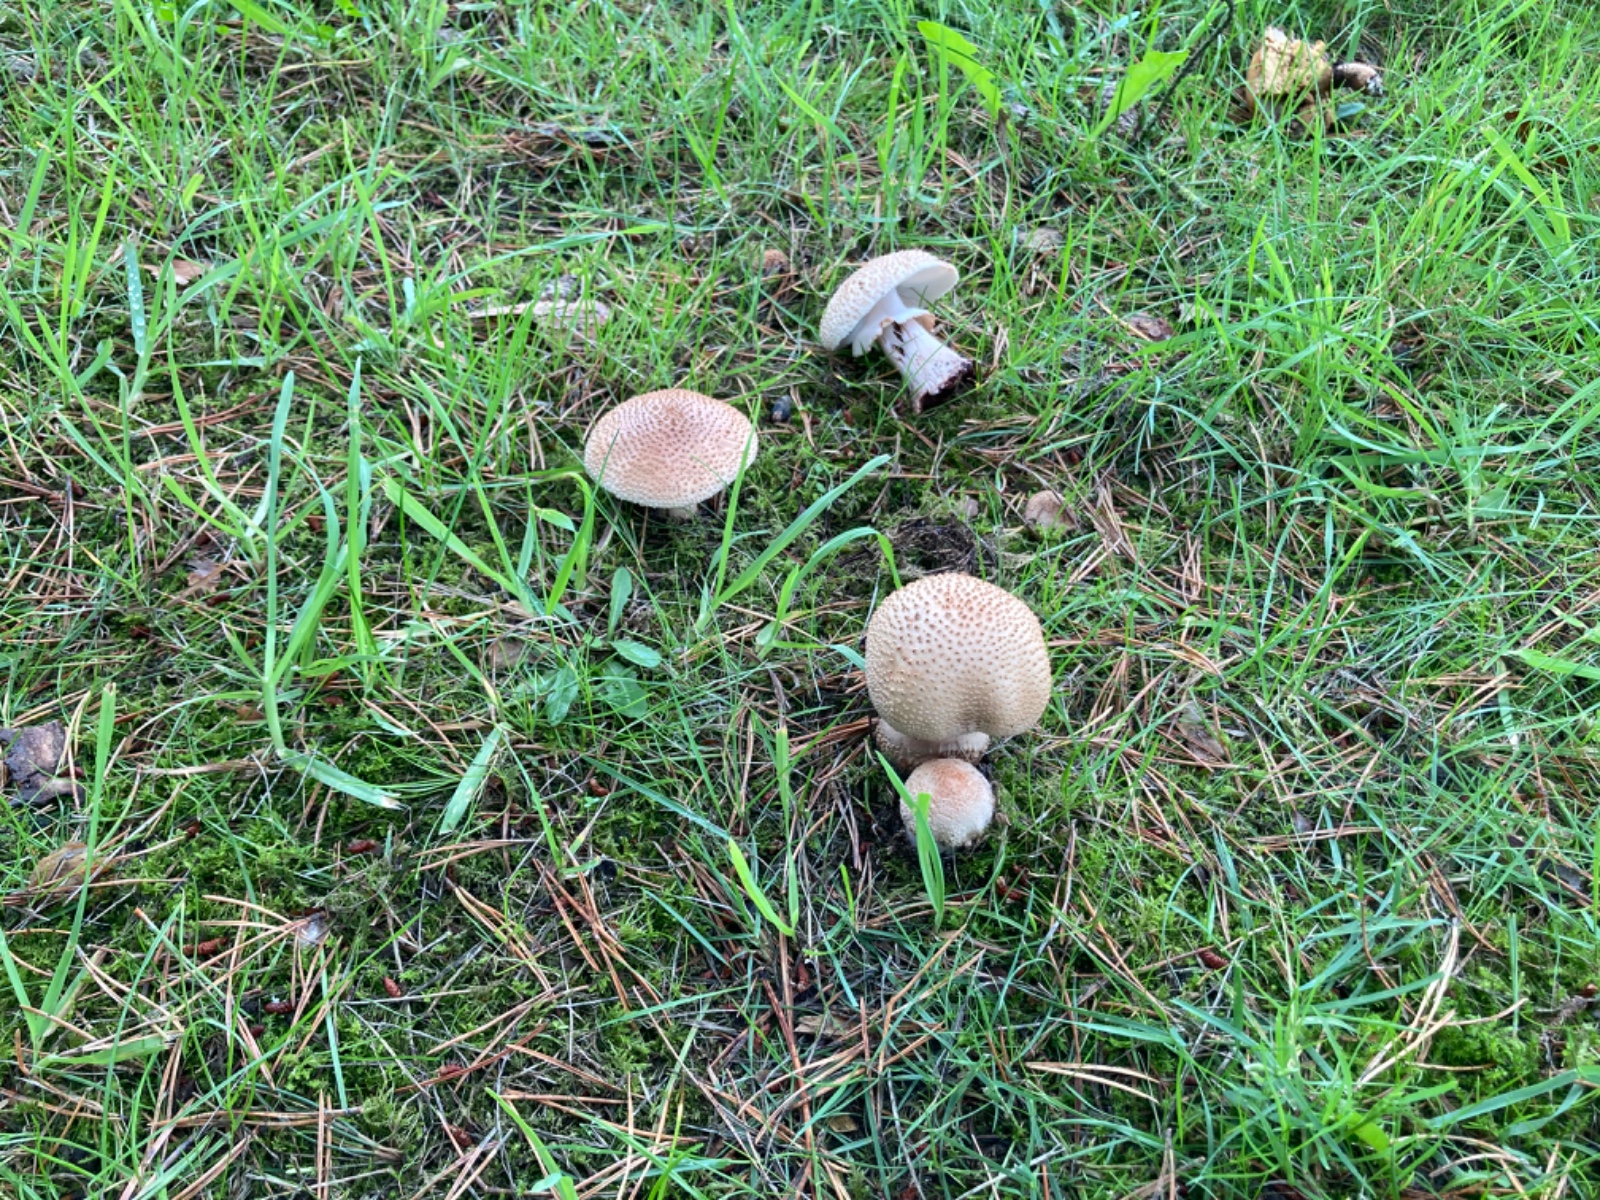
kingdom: Fungi
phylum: Basidiomycota
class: Agaricomycetes
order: Agaricales
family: Amanitaceae
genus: Amanita
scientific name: Amanita rubescens
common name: rødmende fluesvamp
